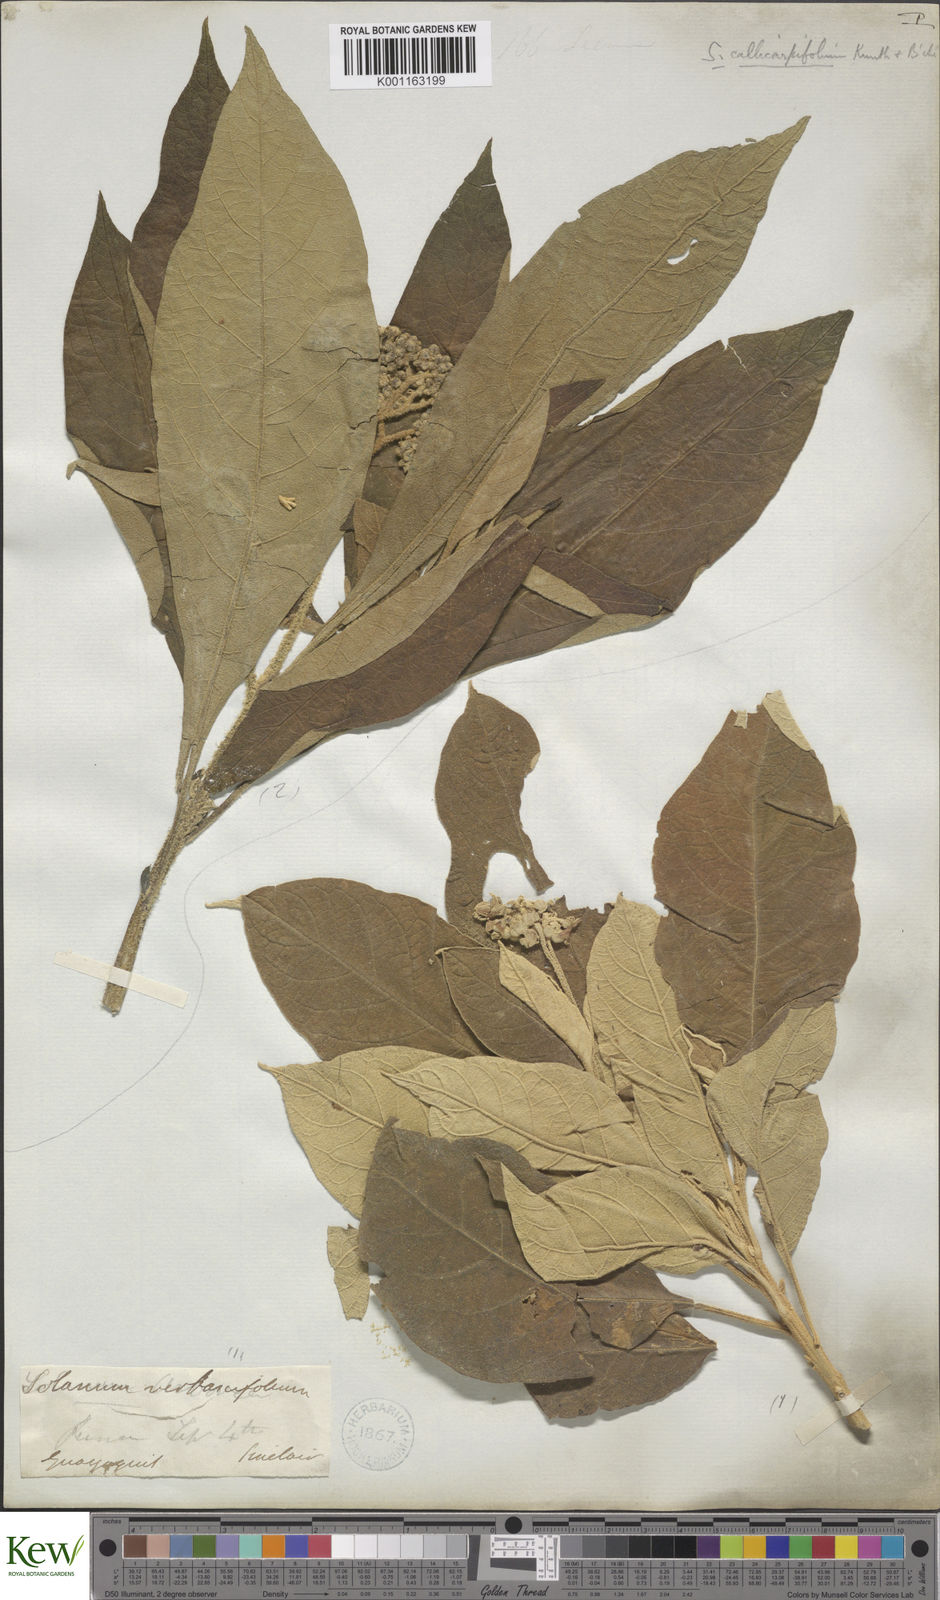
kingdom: Plantae
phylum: Tracheophyta
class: Magnoliopsida
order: Solanales
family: Solanaceae
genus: Solanum
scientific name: Solanum bicolor
